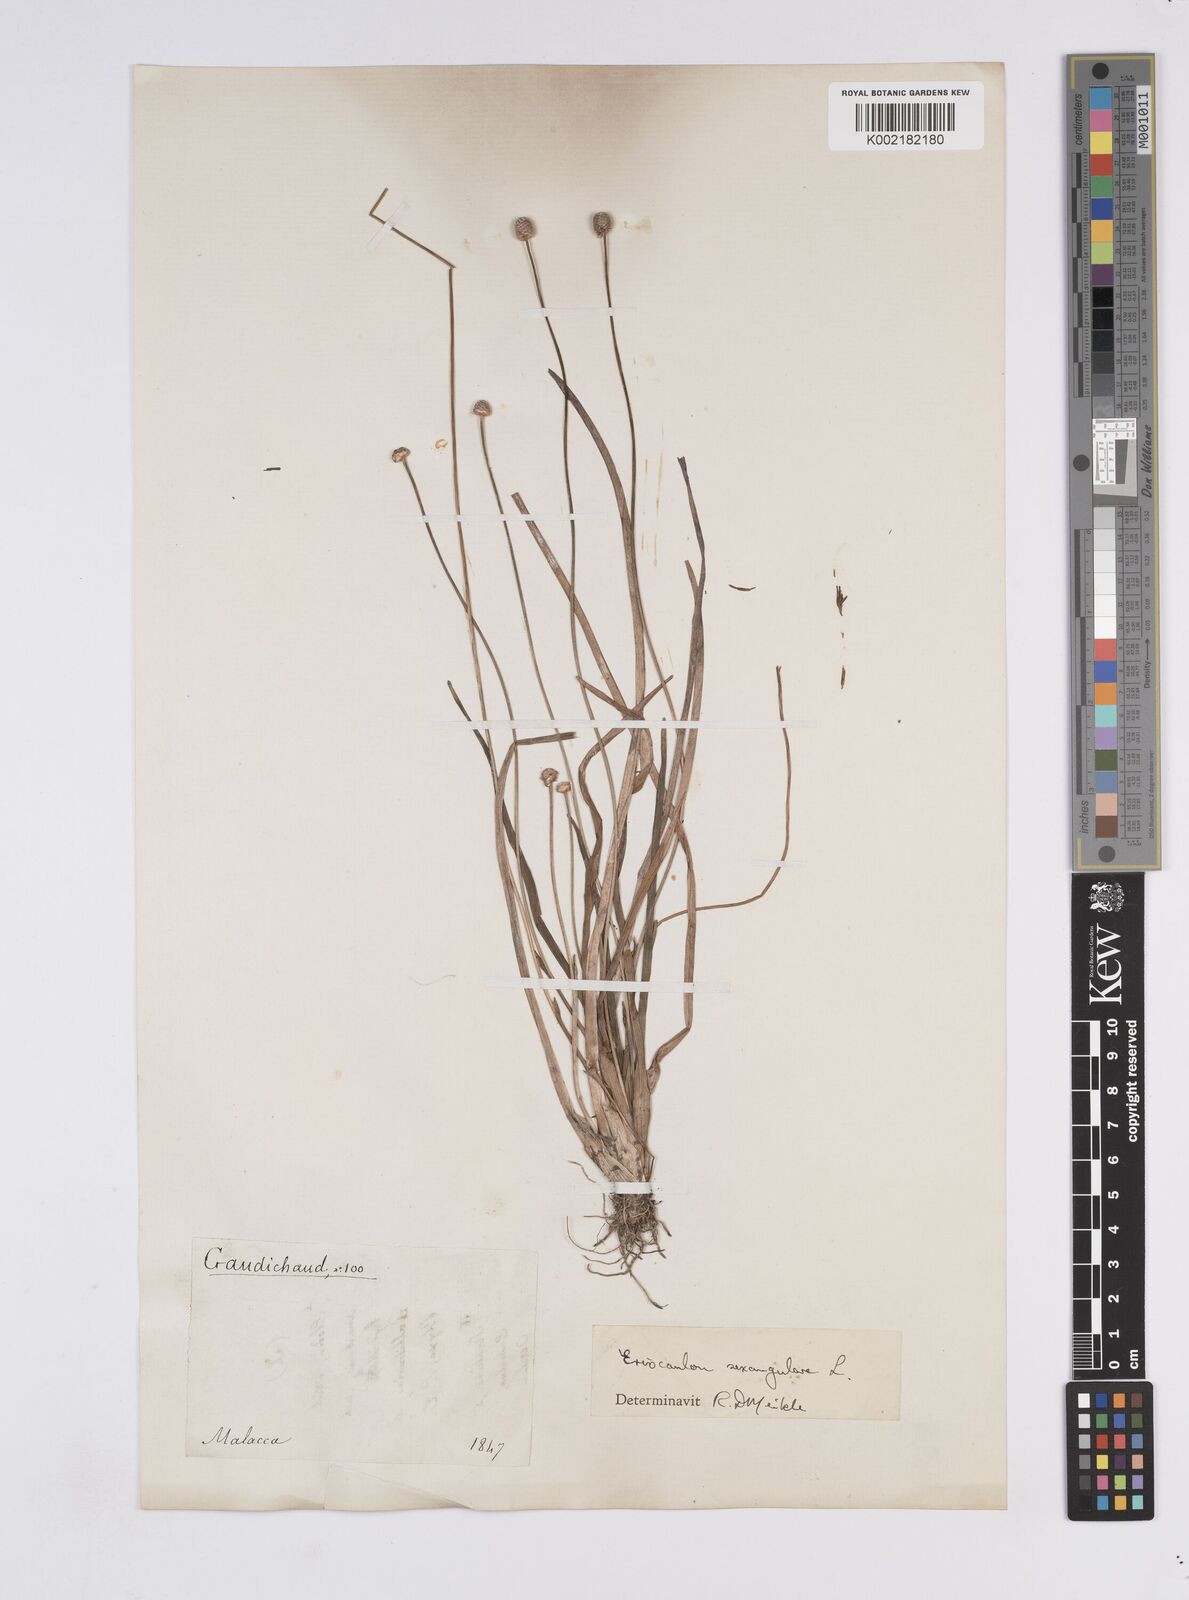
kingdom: Plantae
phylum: Tracheophyta
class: Liliopsida
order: Poales
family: Eriocaulaceae
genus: Eriocaulon
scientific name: Eriocaulon sexangulare
